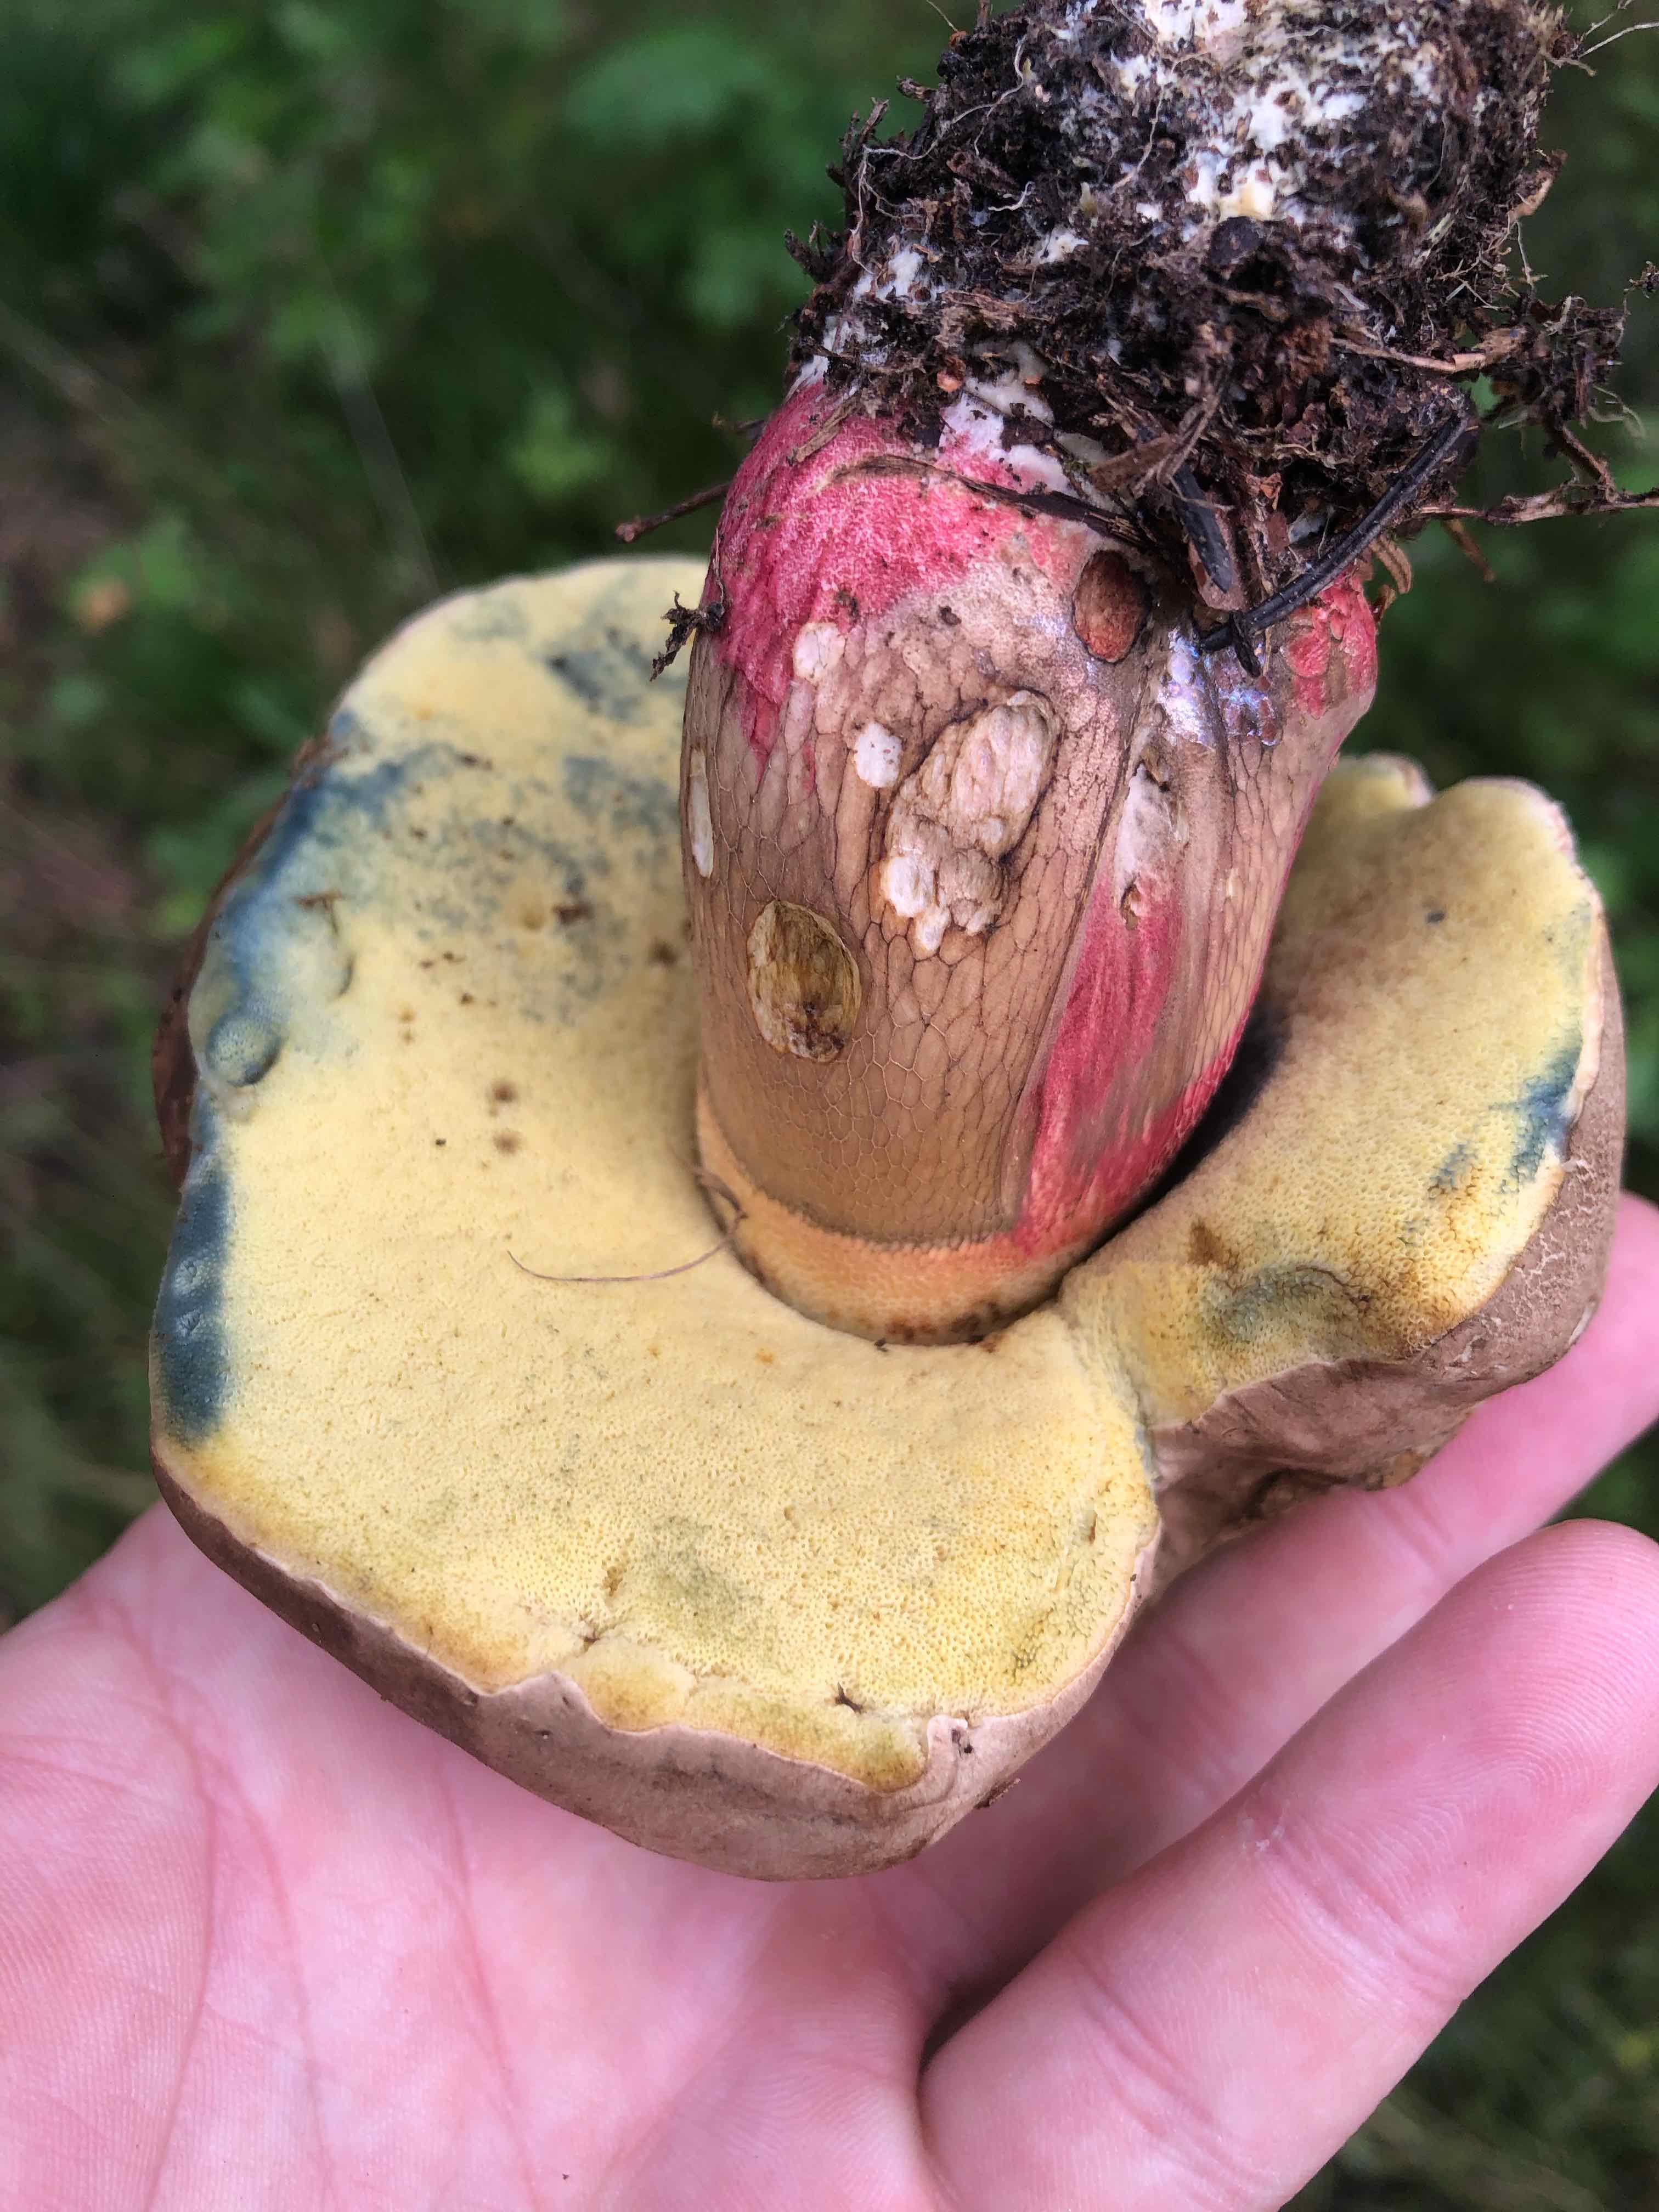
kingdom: Fungi
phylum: Basidiomycota
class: Agaricomycetes
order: Boletales
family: Boletaceae
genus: Caloboletus
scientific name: Caloboletus calopus
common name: skønfodet rørhat
